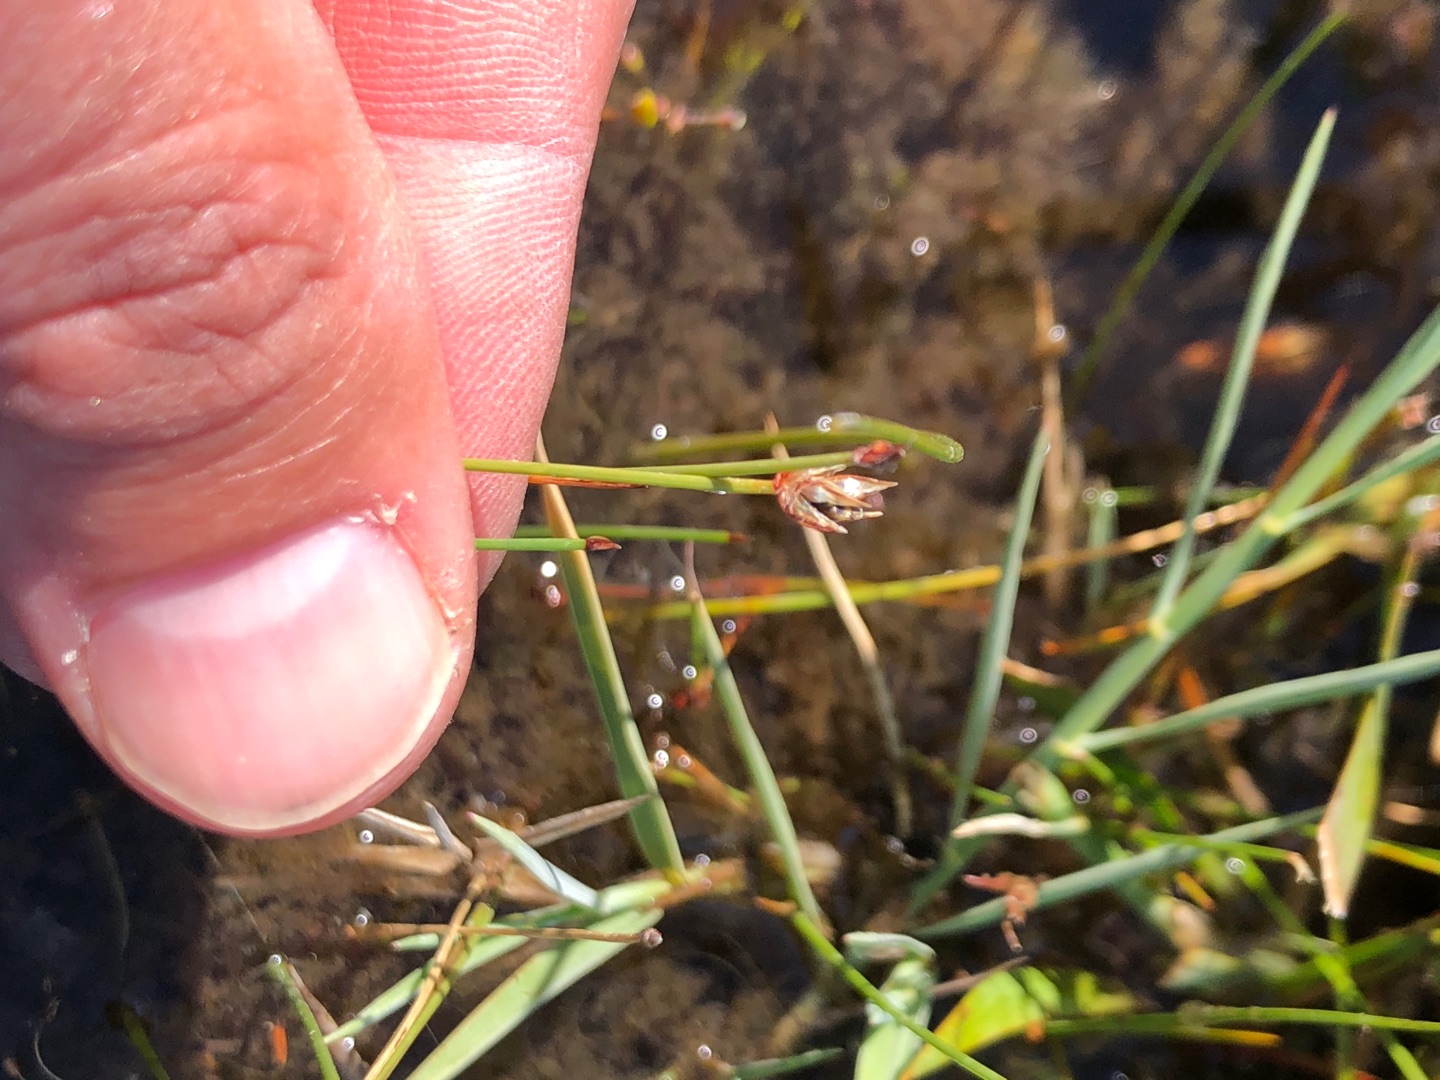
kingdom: Plantae
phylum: Tracheophyta
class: Liliopsida
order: Poales
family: Cyperaceae
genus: Eleocharis
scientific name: Eleocharis quinqueflora
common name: Fåblomstret kogleaks
